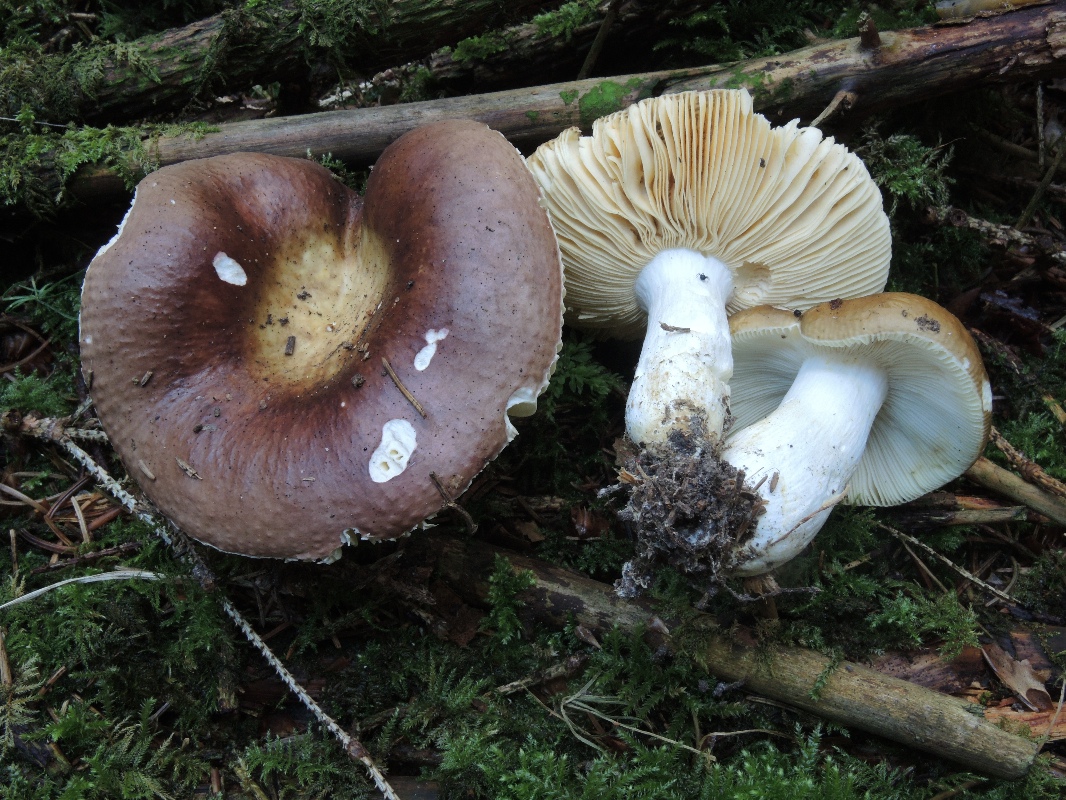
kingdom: Fungi
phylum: Basidiomycota
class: Agaricomycetes
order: Russulales
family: Russulaceae
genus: Russula
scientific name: Russula integra
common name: mandel-skørhat
